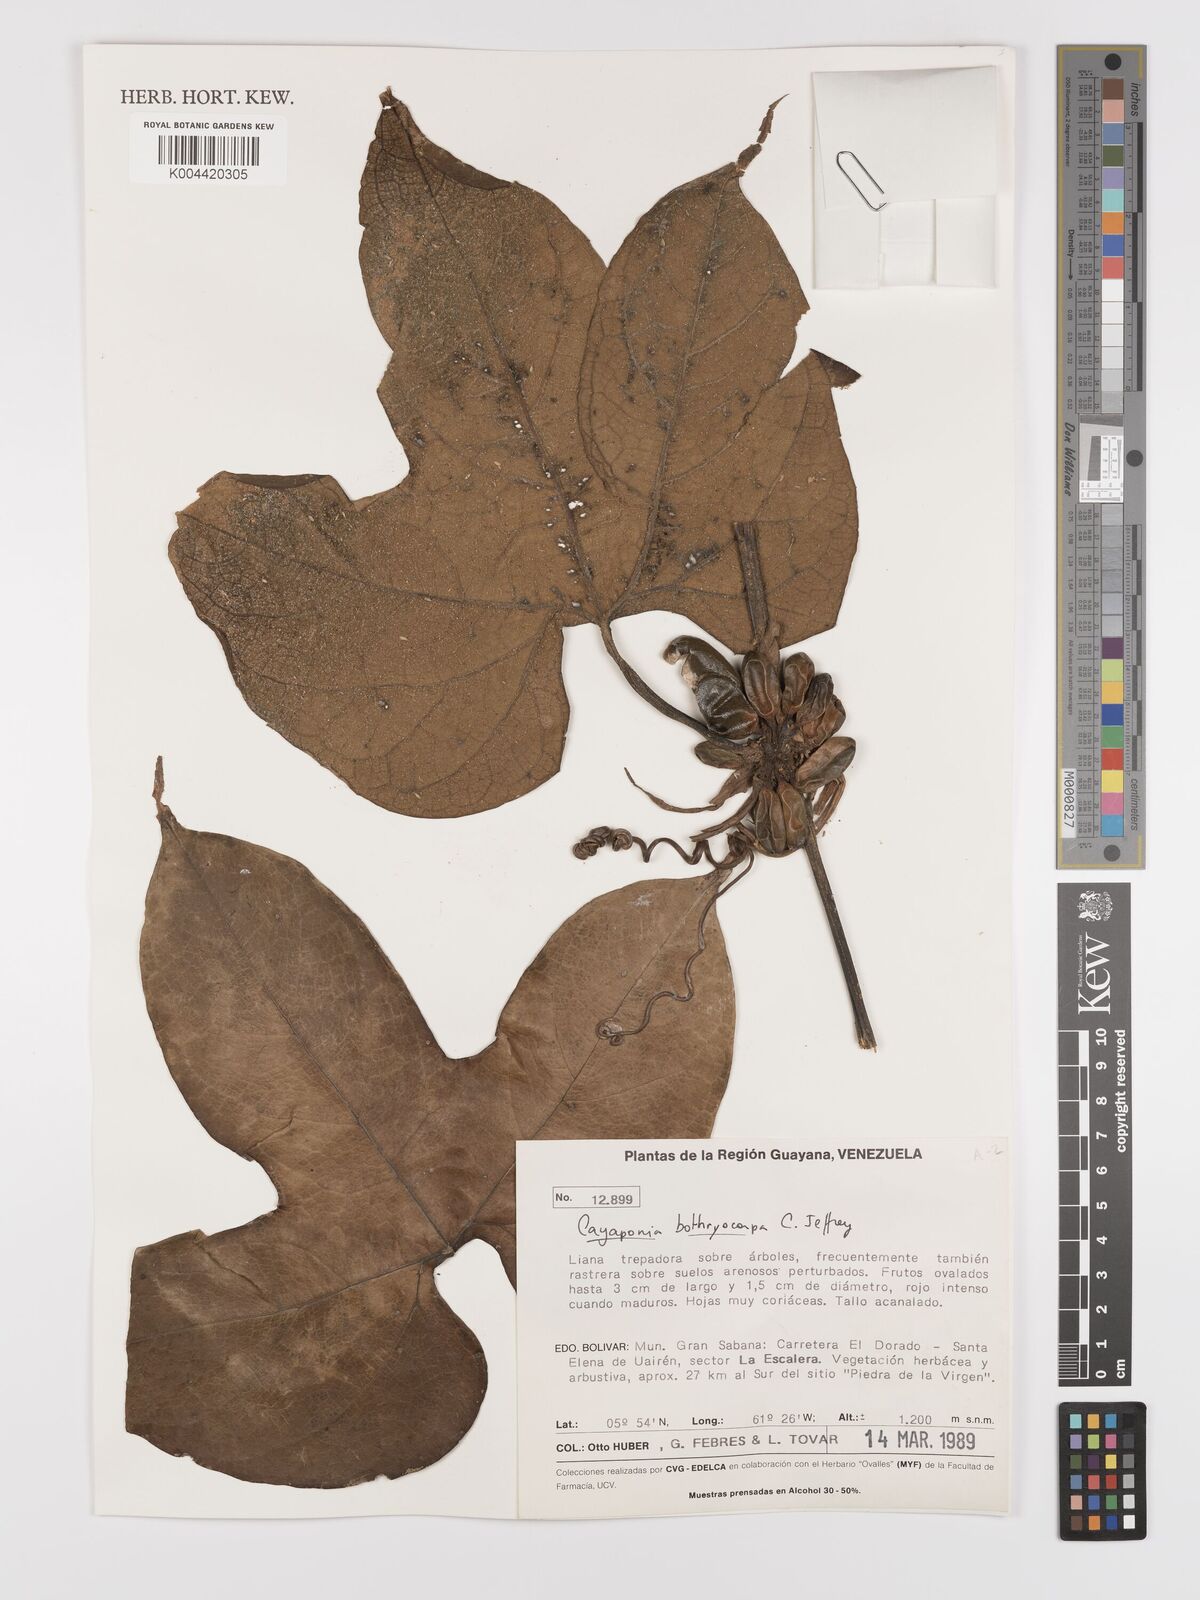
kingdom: Plantae
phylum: Tracheophyta
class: Magnoliopsida
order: Cucurbitales
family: Cucurbitaceae
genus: Cayaponia
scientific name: Cayaponia botryocarpa
